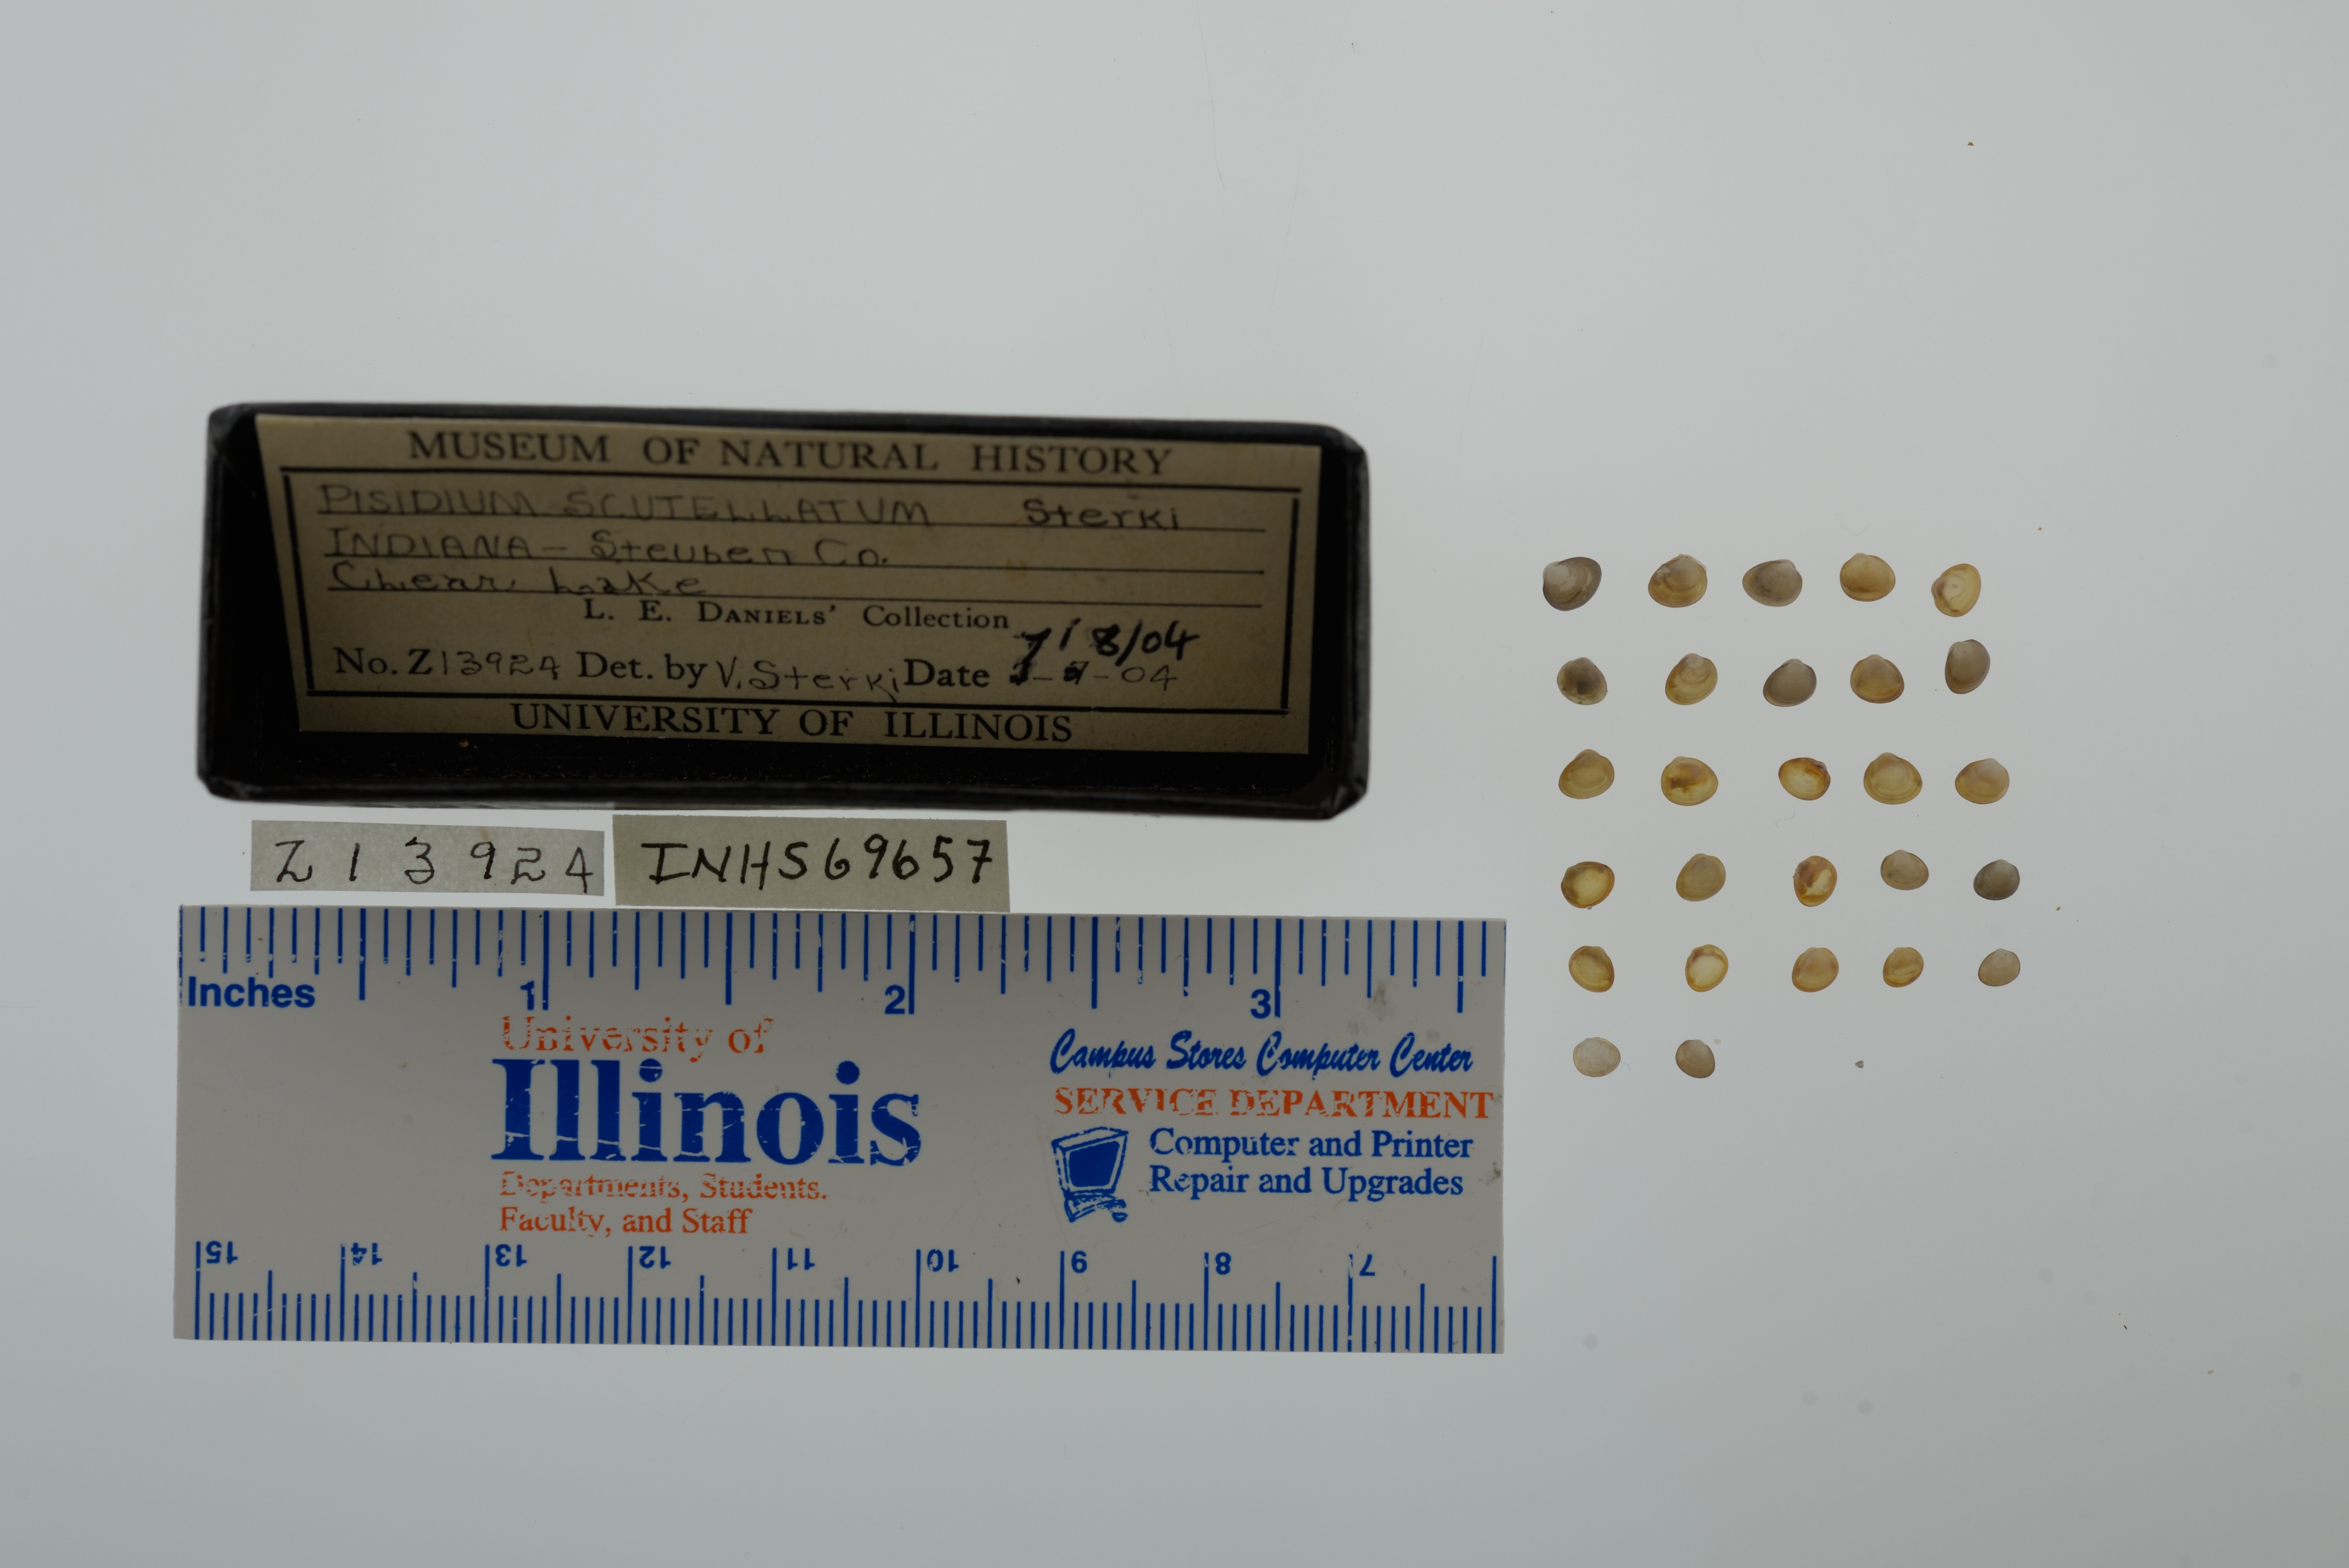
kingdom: Animalia
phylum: Mollusca
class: Bivalvia
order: Sphaeriida
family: Sphaeriidae
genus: Euglesa
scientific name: Euglesa lilljeborgii
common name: Lilljeborg peaclam
